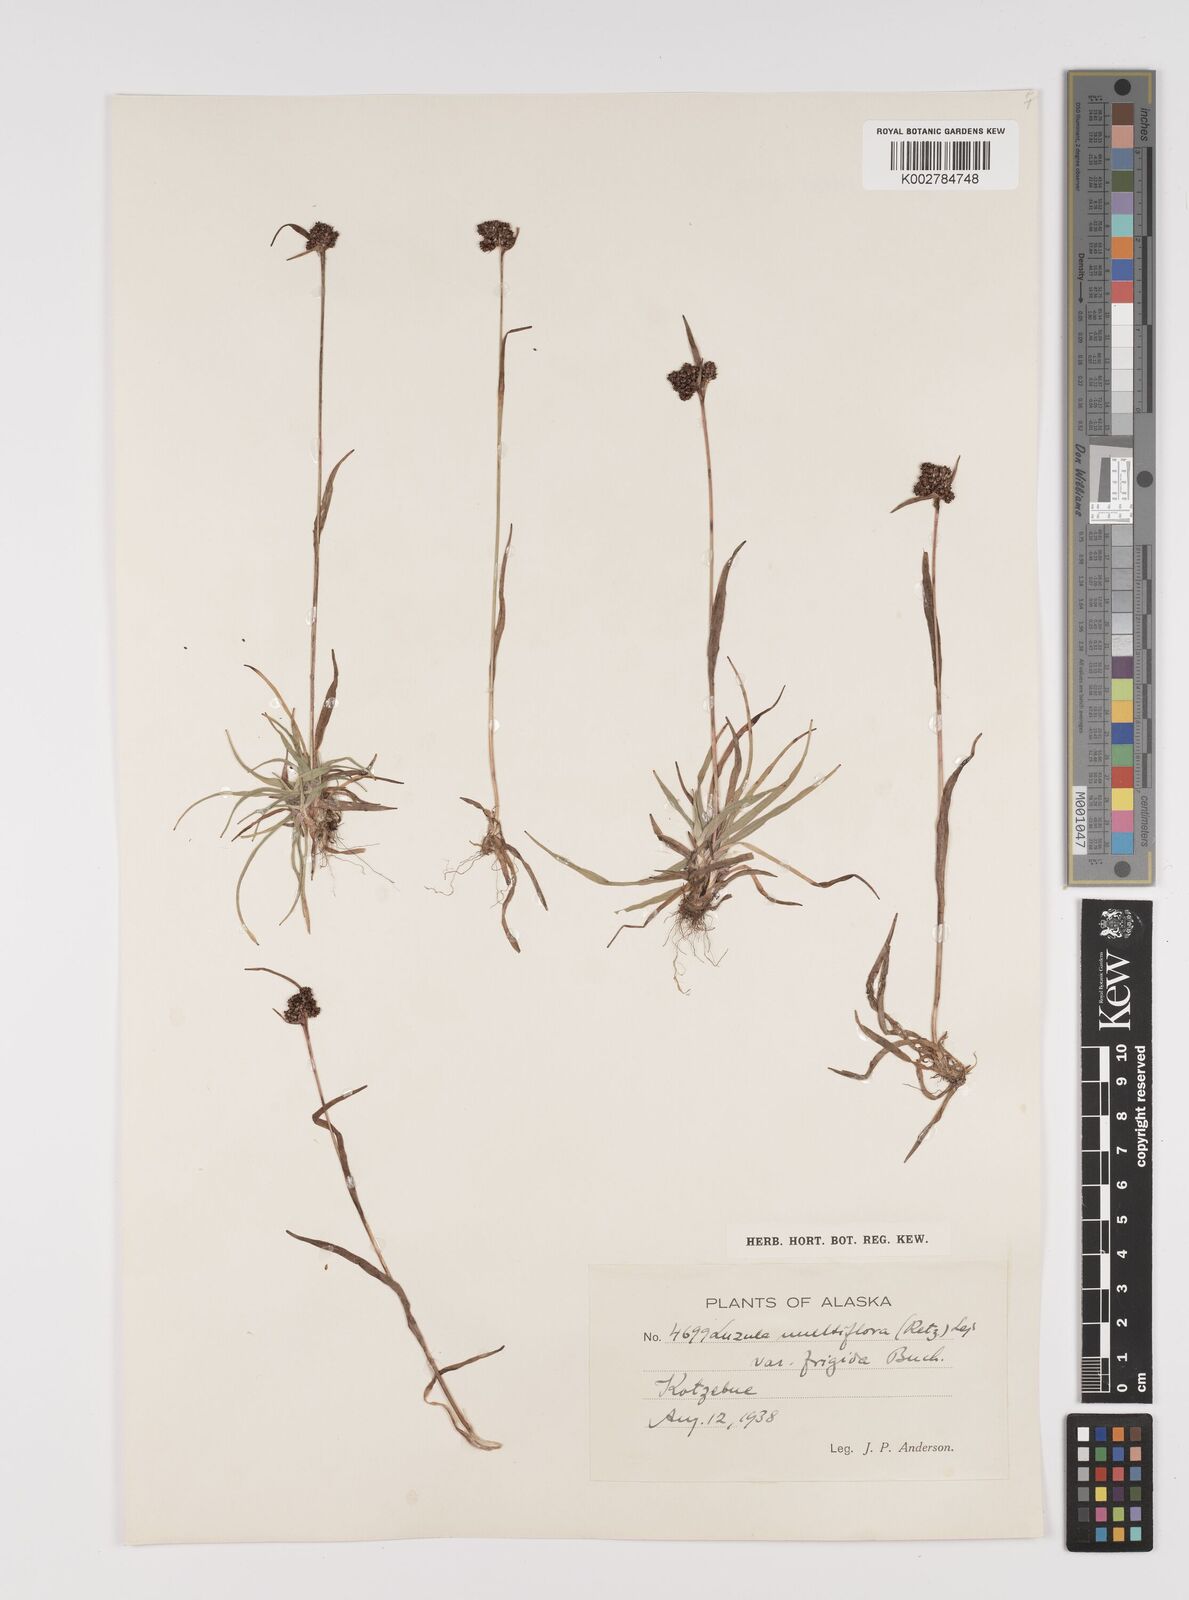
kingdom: Plantae
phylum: Tracheophyta
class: Liliopsida
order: Poales
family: Juncaceae
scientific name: Juncaceae
